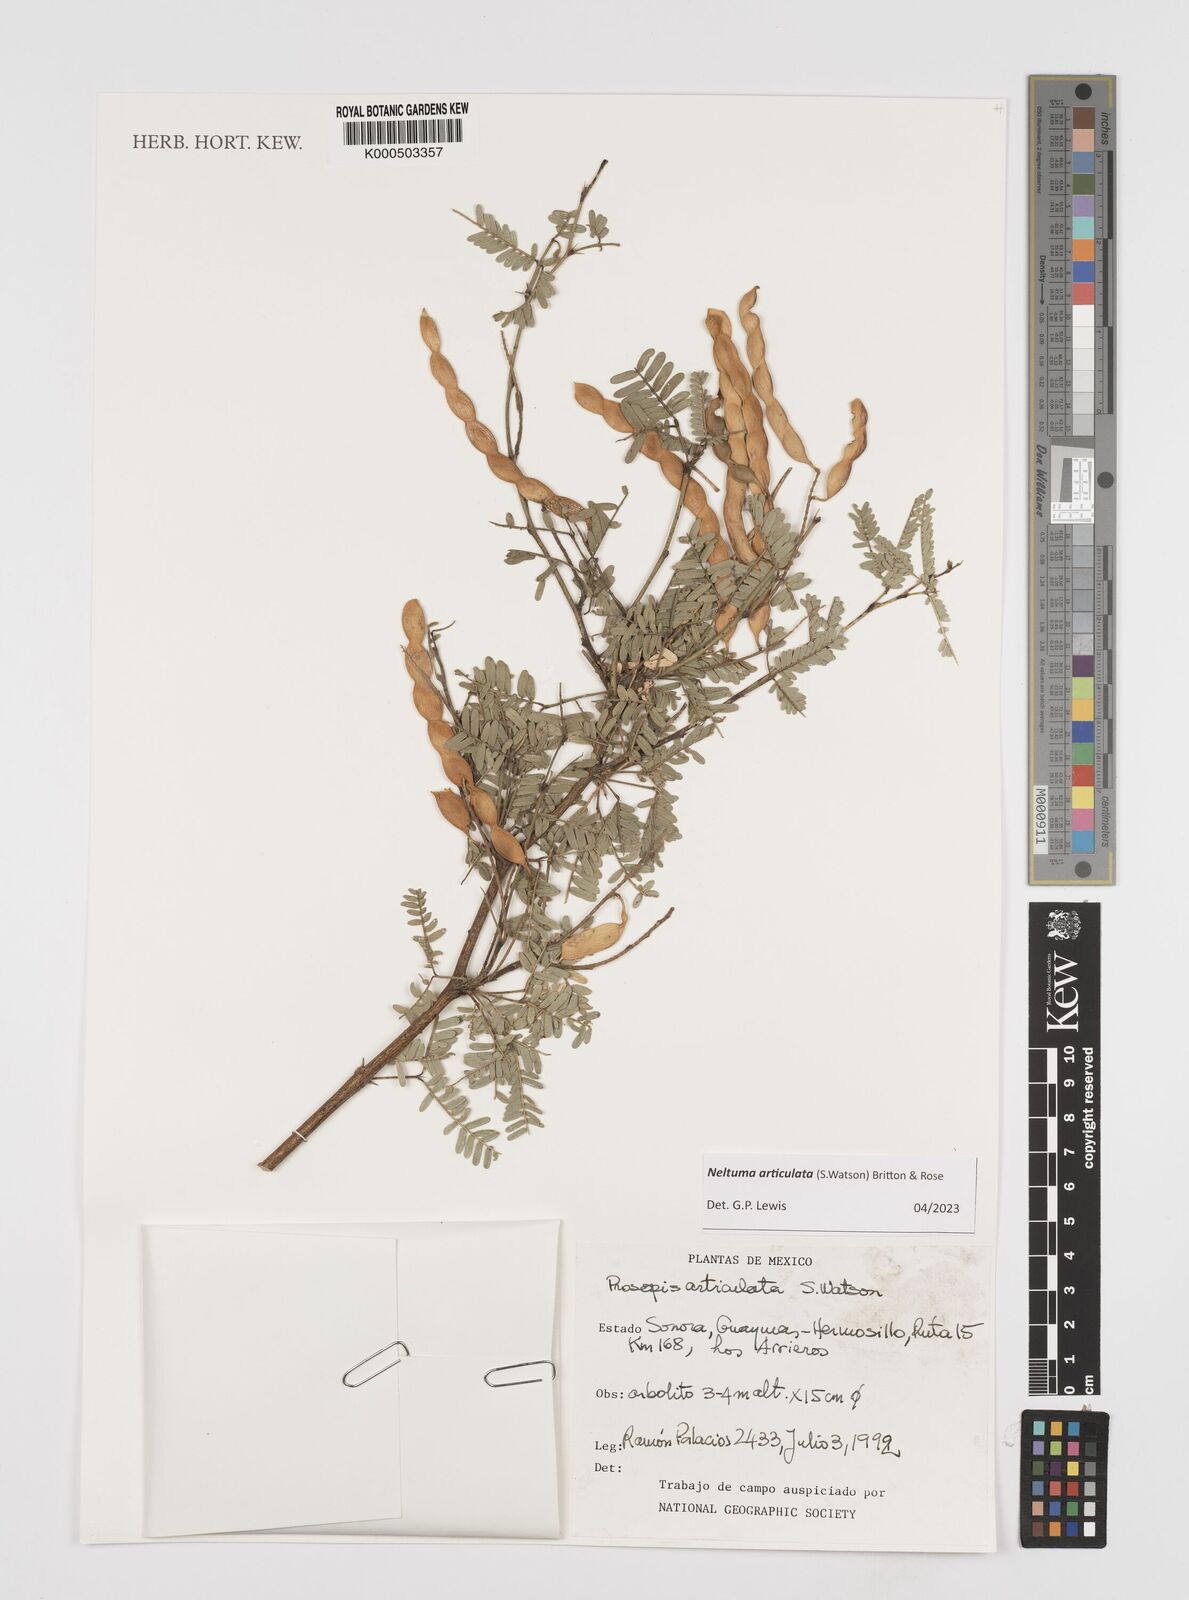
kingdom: Plantae
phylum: Tracheophyta
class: Magnoliopsida
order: Fabales
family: Fabaceae
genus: Prosopis
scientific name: Prosopis articulata
